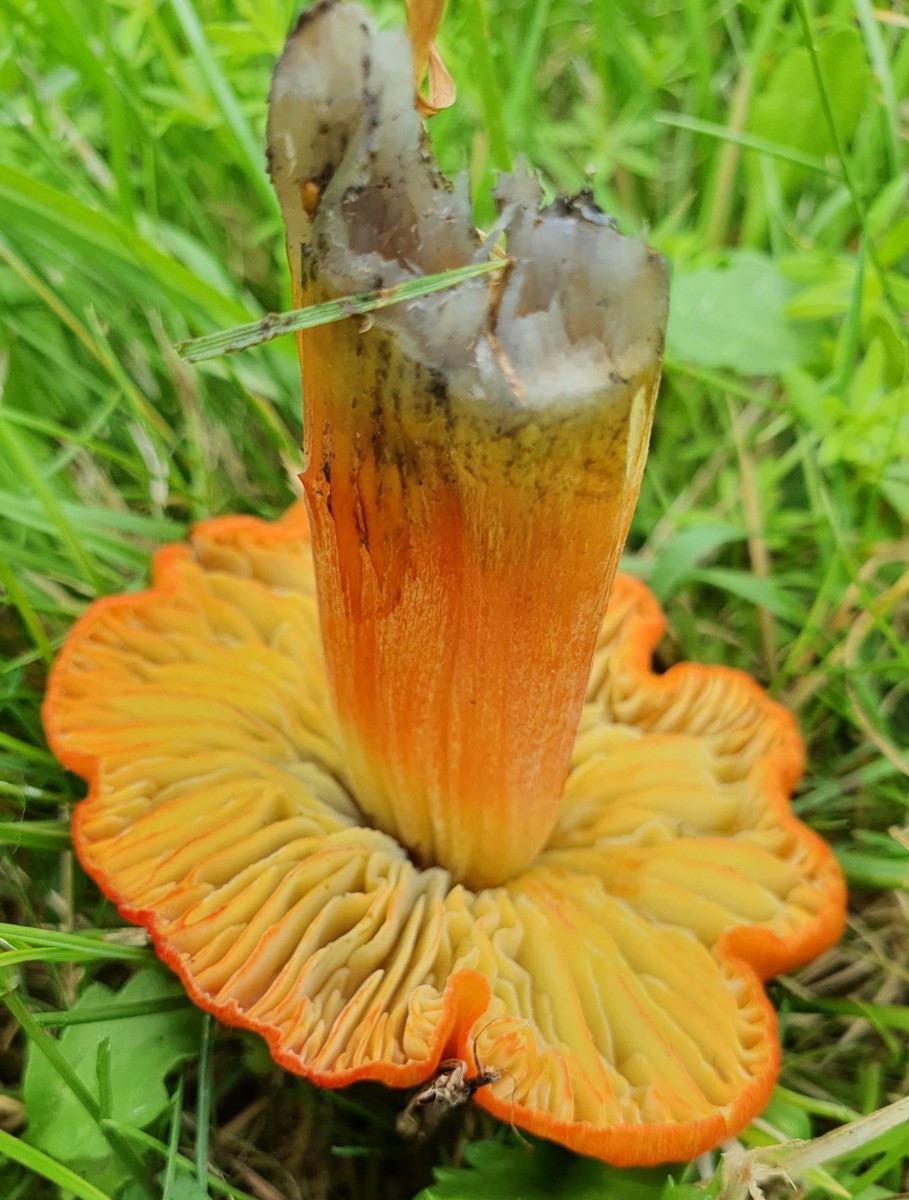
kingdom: Fungi
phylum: Basidiomycota
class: Agaricomycetes
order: Agaricales
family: Hygrophoraceae
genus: Hygrocybe
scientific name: Hygrocybe conica
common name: kegle-vokshat
